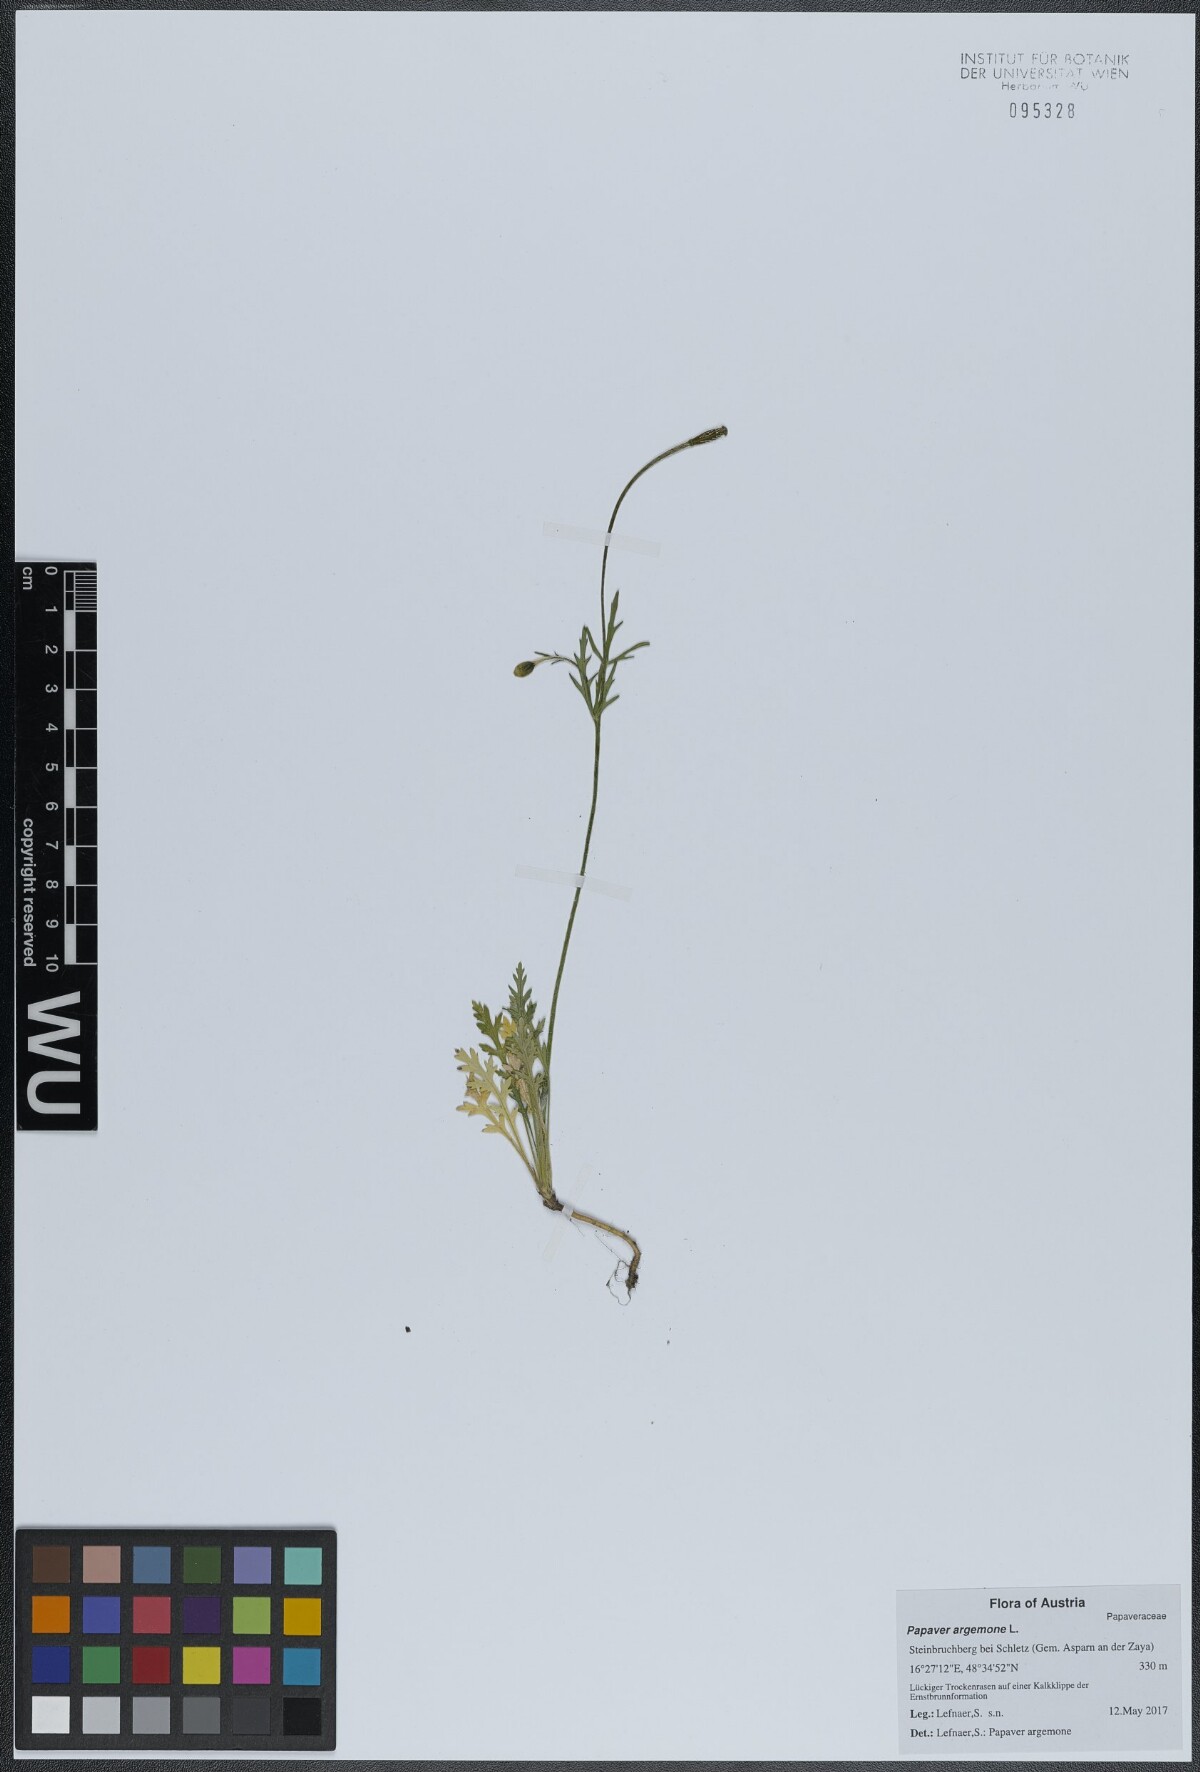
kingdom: Plantae
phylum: Tracheophyta
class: Magnoliopsida
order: Ranunculales
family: Papaveraceae
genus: Roemeria
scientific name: Roemeria argemone
